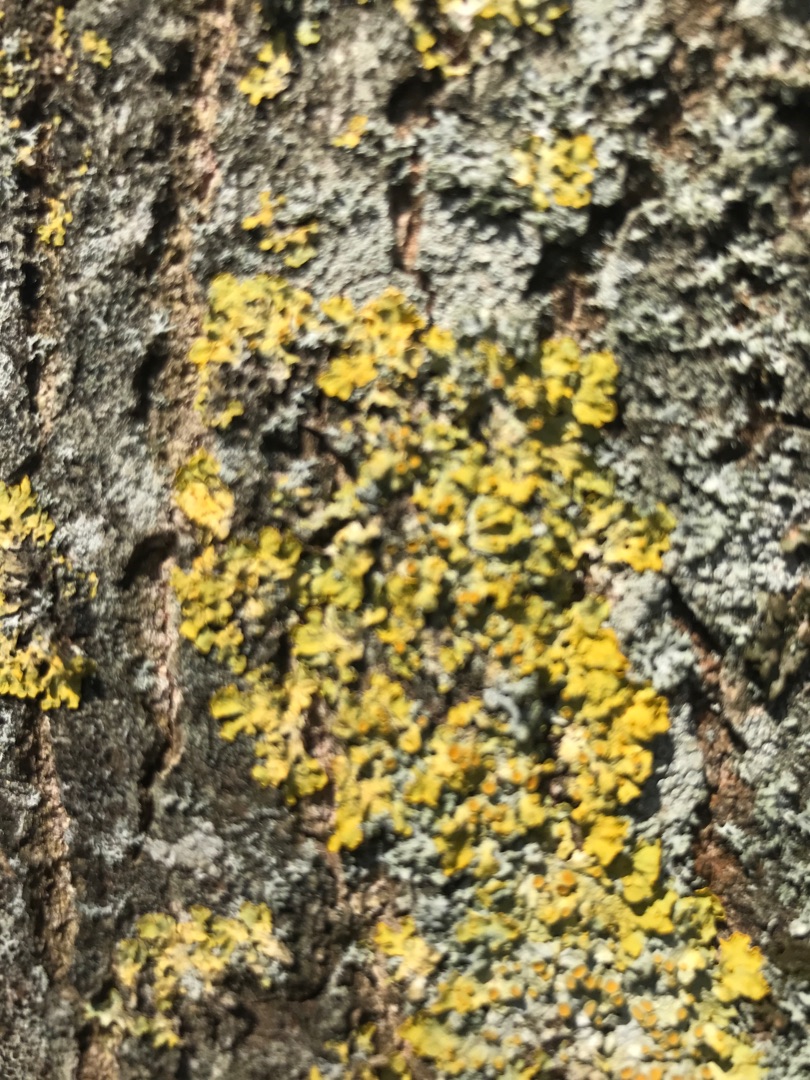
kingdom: Fungi
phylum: Ascomycota
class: Lecanoromycetes
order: Teloschistales
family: Teloschistaceae
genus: Xanthoria
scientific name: Xanthoria parietina
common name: Almindelig væggelav
